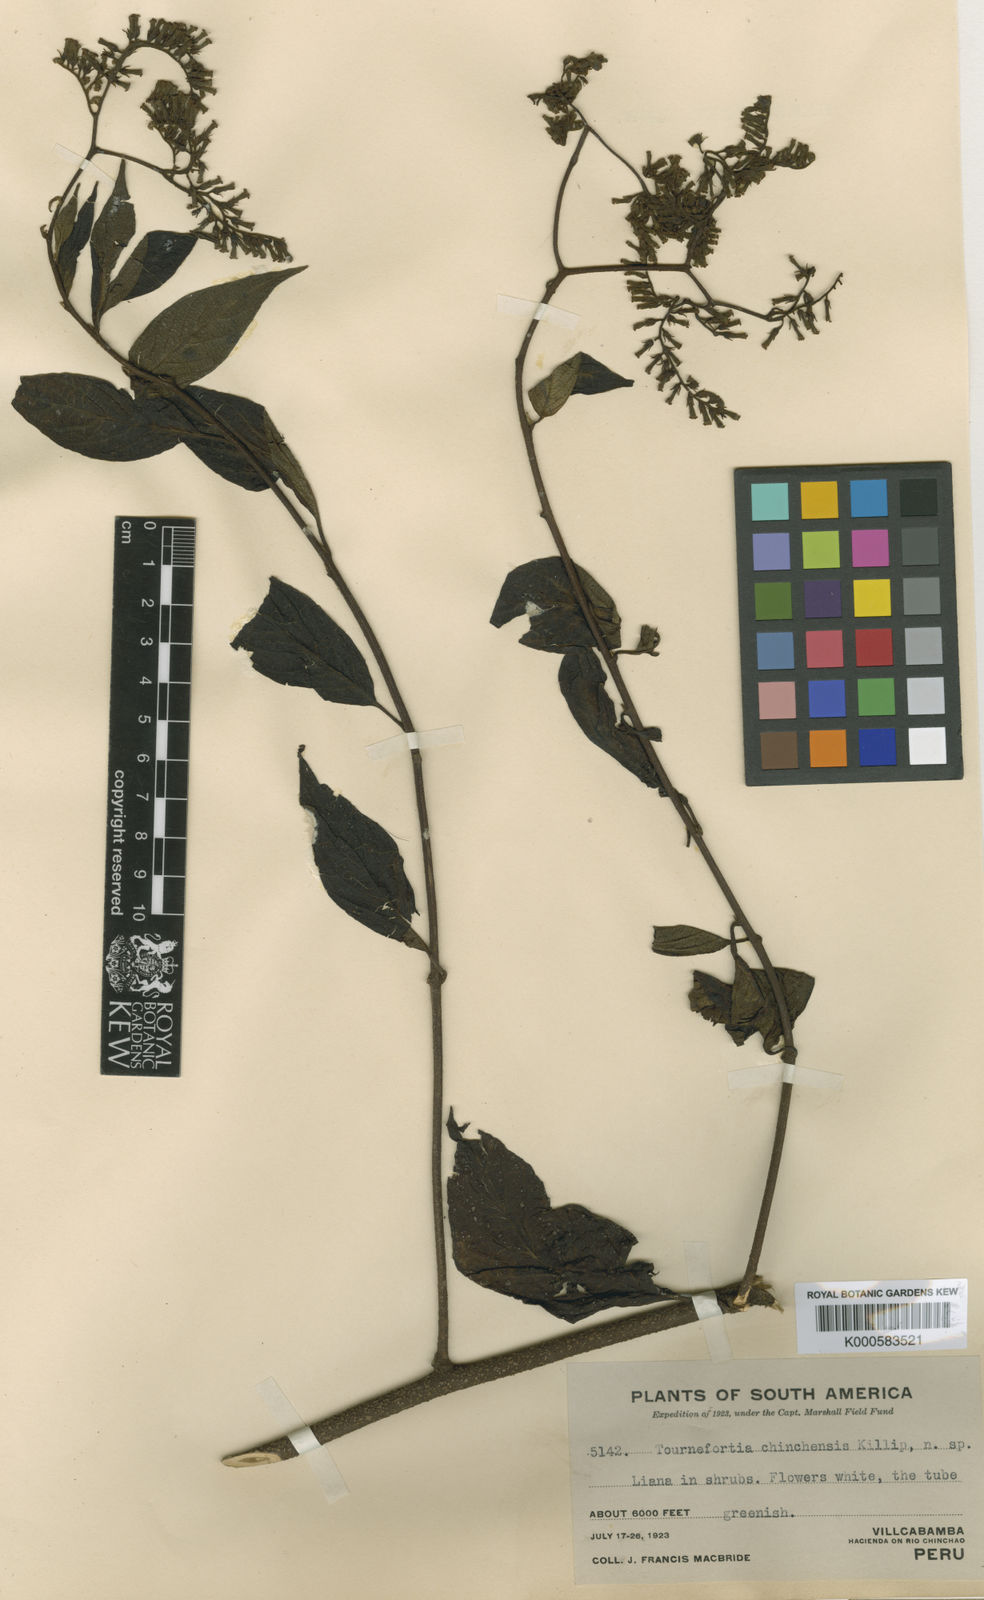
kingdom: Plantae
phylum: Tracheophyta
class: Magnoliopsida
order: Boraginales
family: Heliotropiaceae
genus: Tournefortia
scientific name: Tournefortia chinchensis
